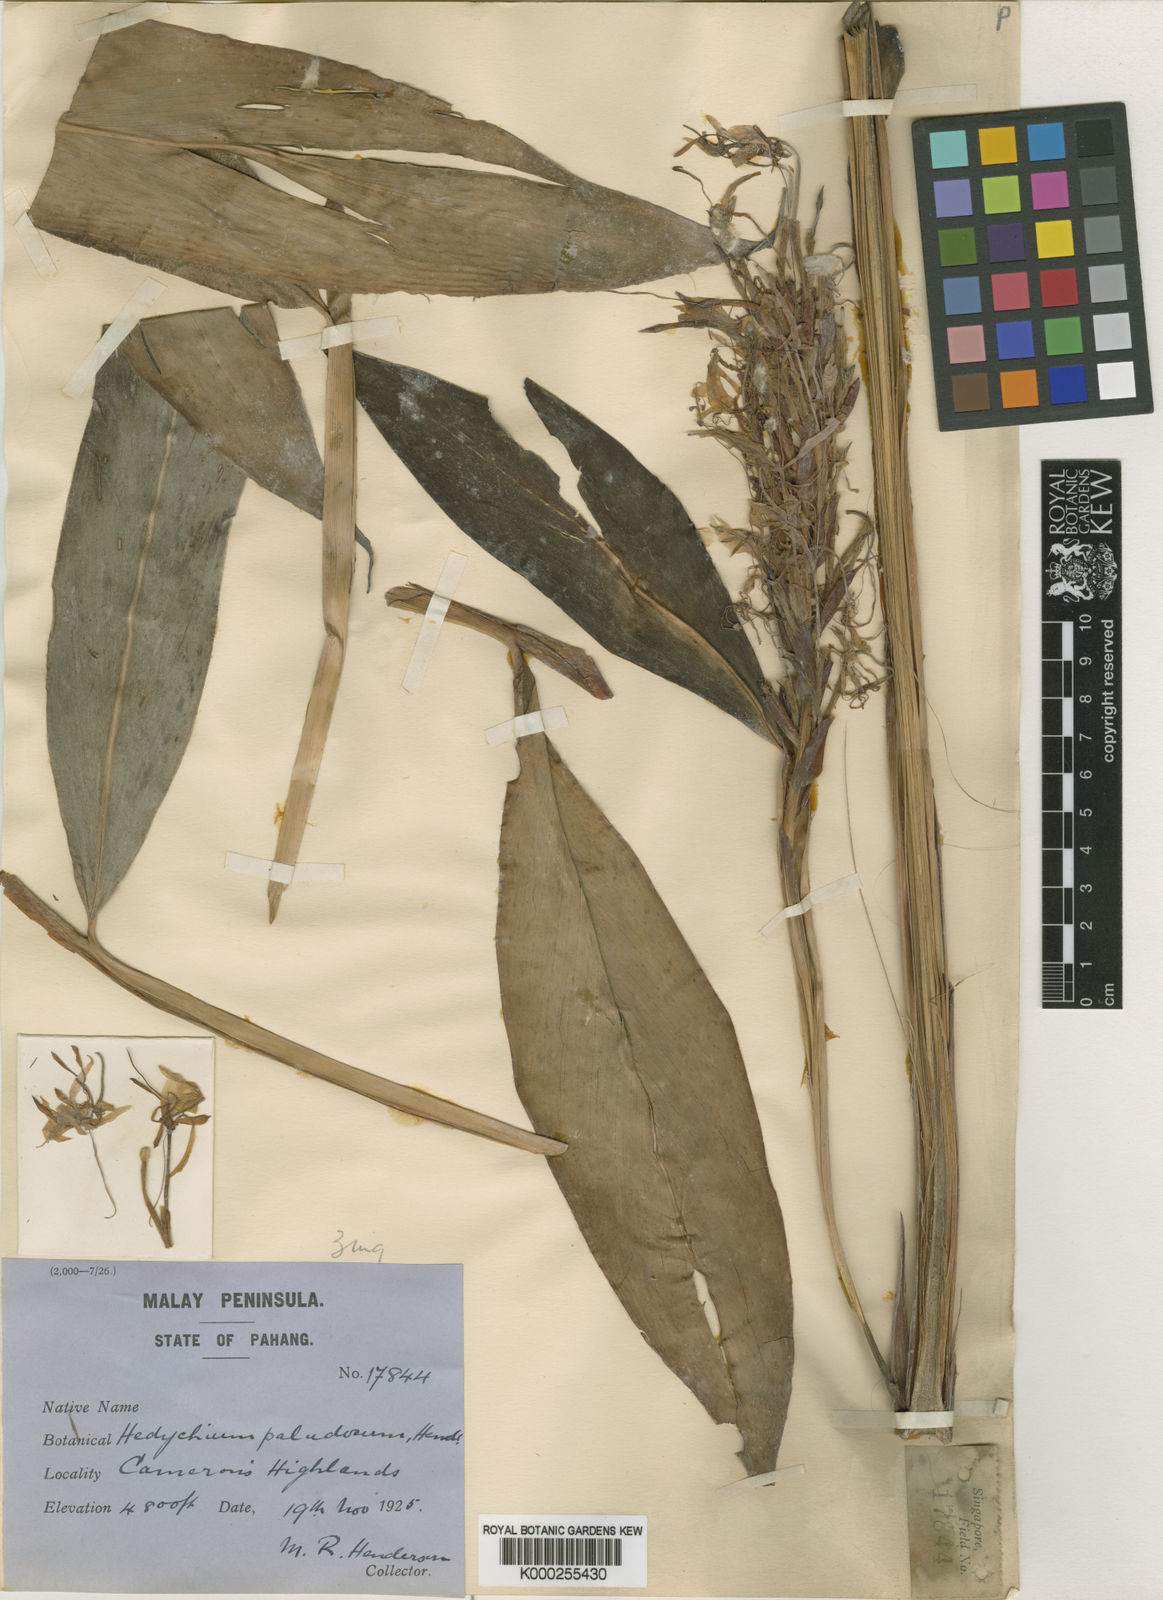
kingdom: Plantae
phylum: Tracheophyta
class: Liliopsida
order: Zingiberales
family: Zingiberaceae
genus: Hedychium
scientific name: Hedychium paludosum
